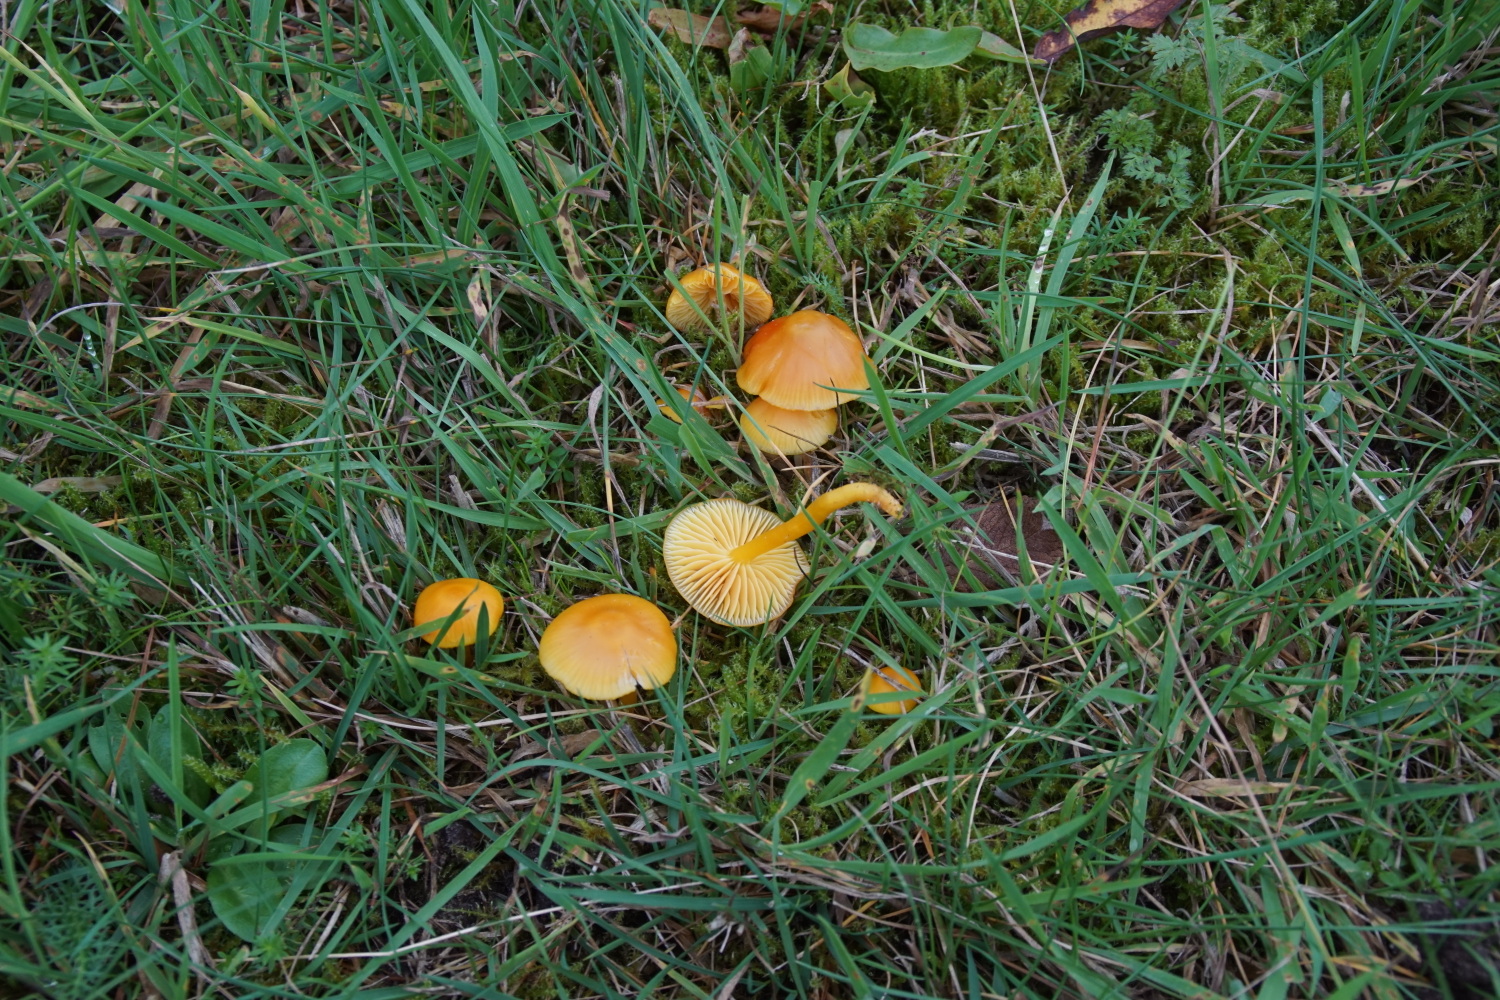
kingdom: Fungi
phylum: Basidiomycota
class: Agaricomycetes
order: Agaricales
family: Hygrophoraceae
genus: Hygrocybe
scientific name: Hygrocybe ceracea
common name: voksgul vokshat
